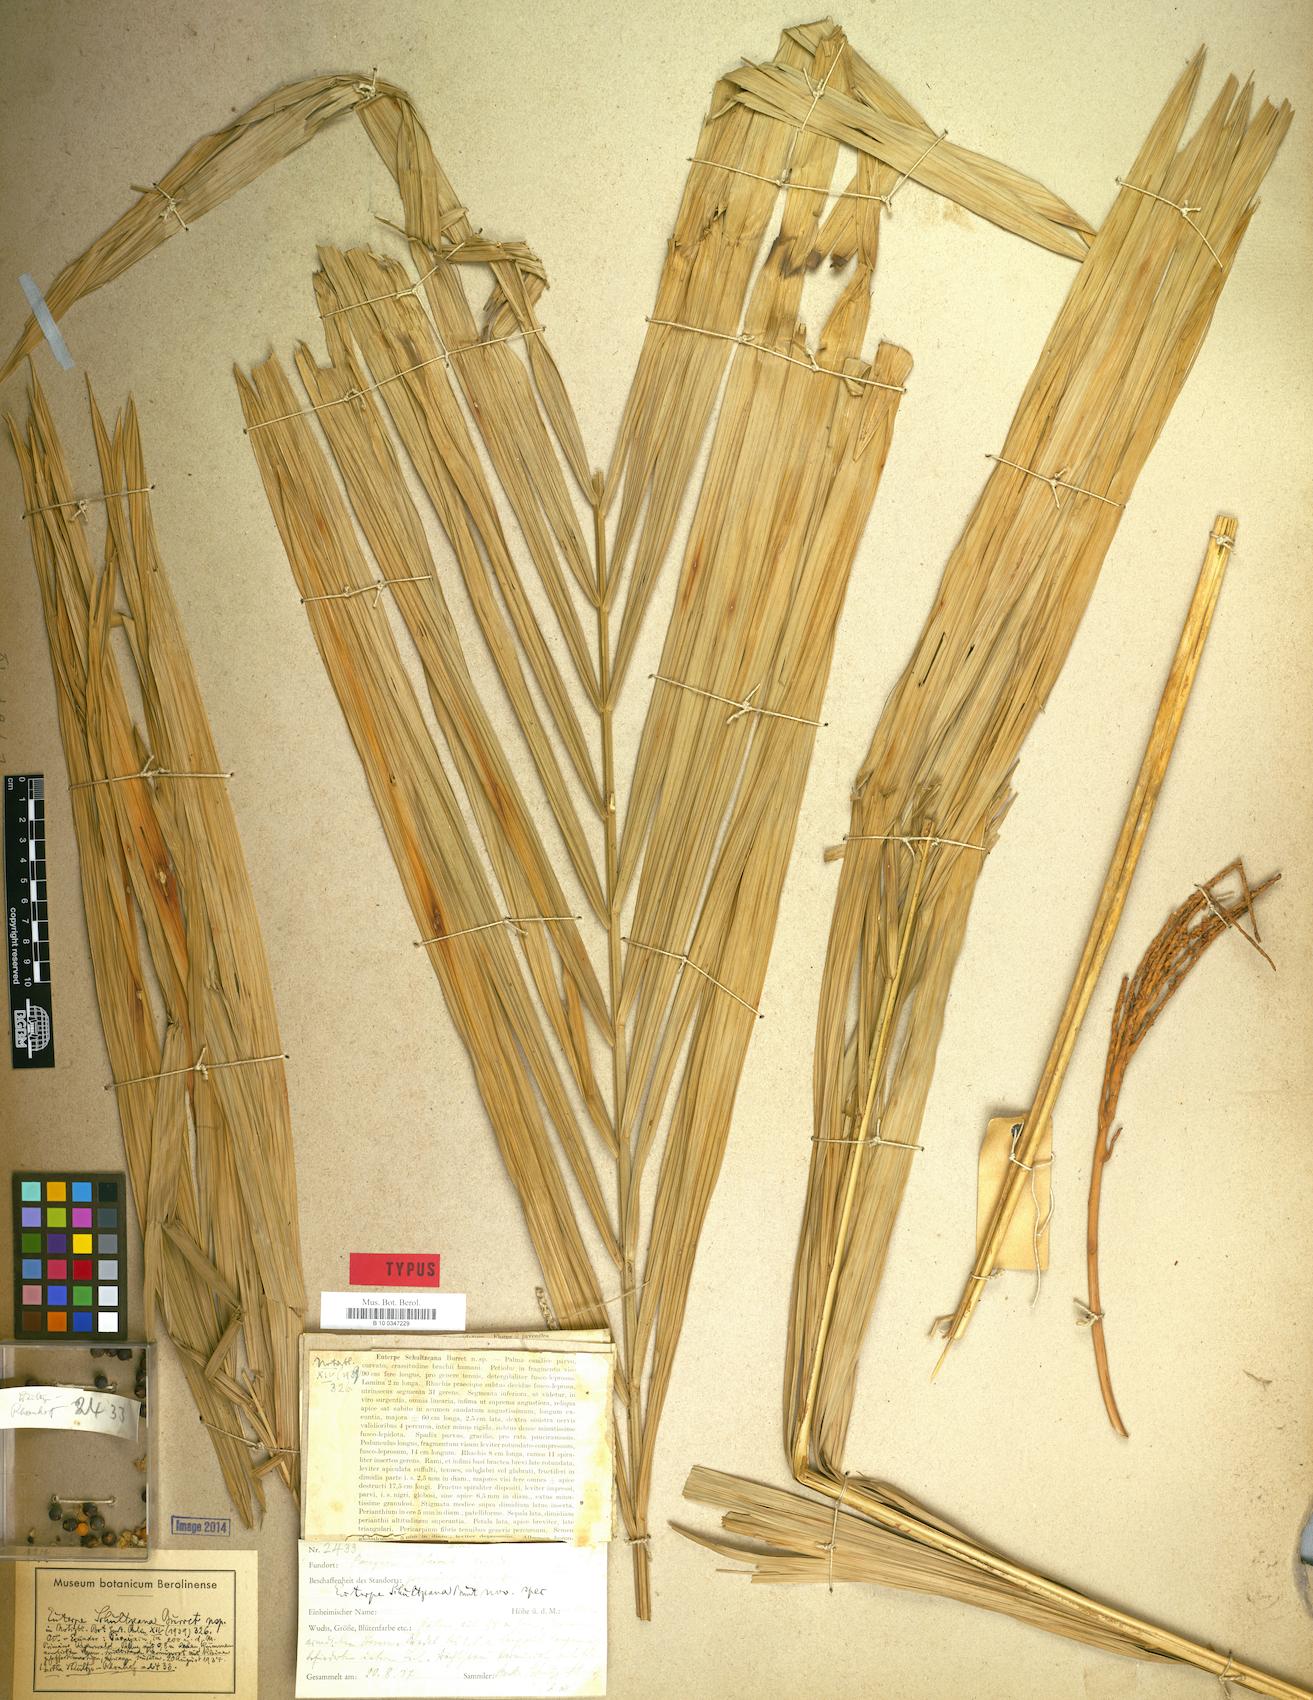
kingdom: Plantae
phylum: Tracheophyta
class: Liliopsida
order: Arecales
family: Arecaceae
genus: Prestoea
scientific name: Prestoea schultzeana
